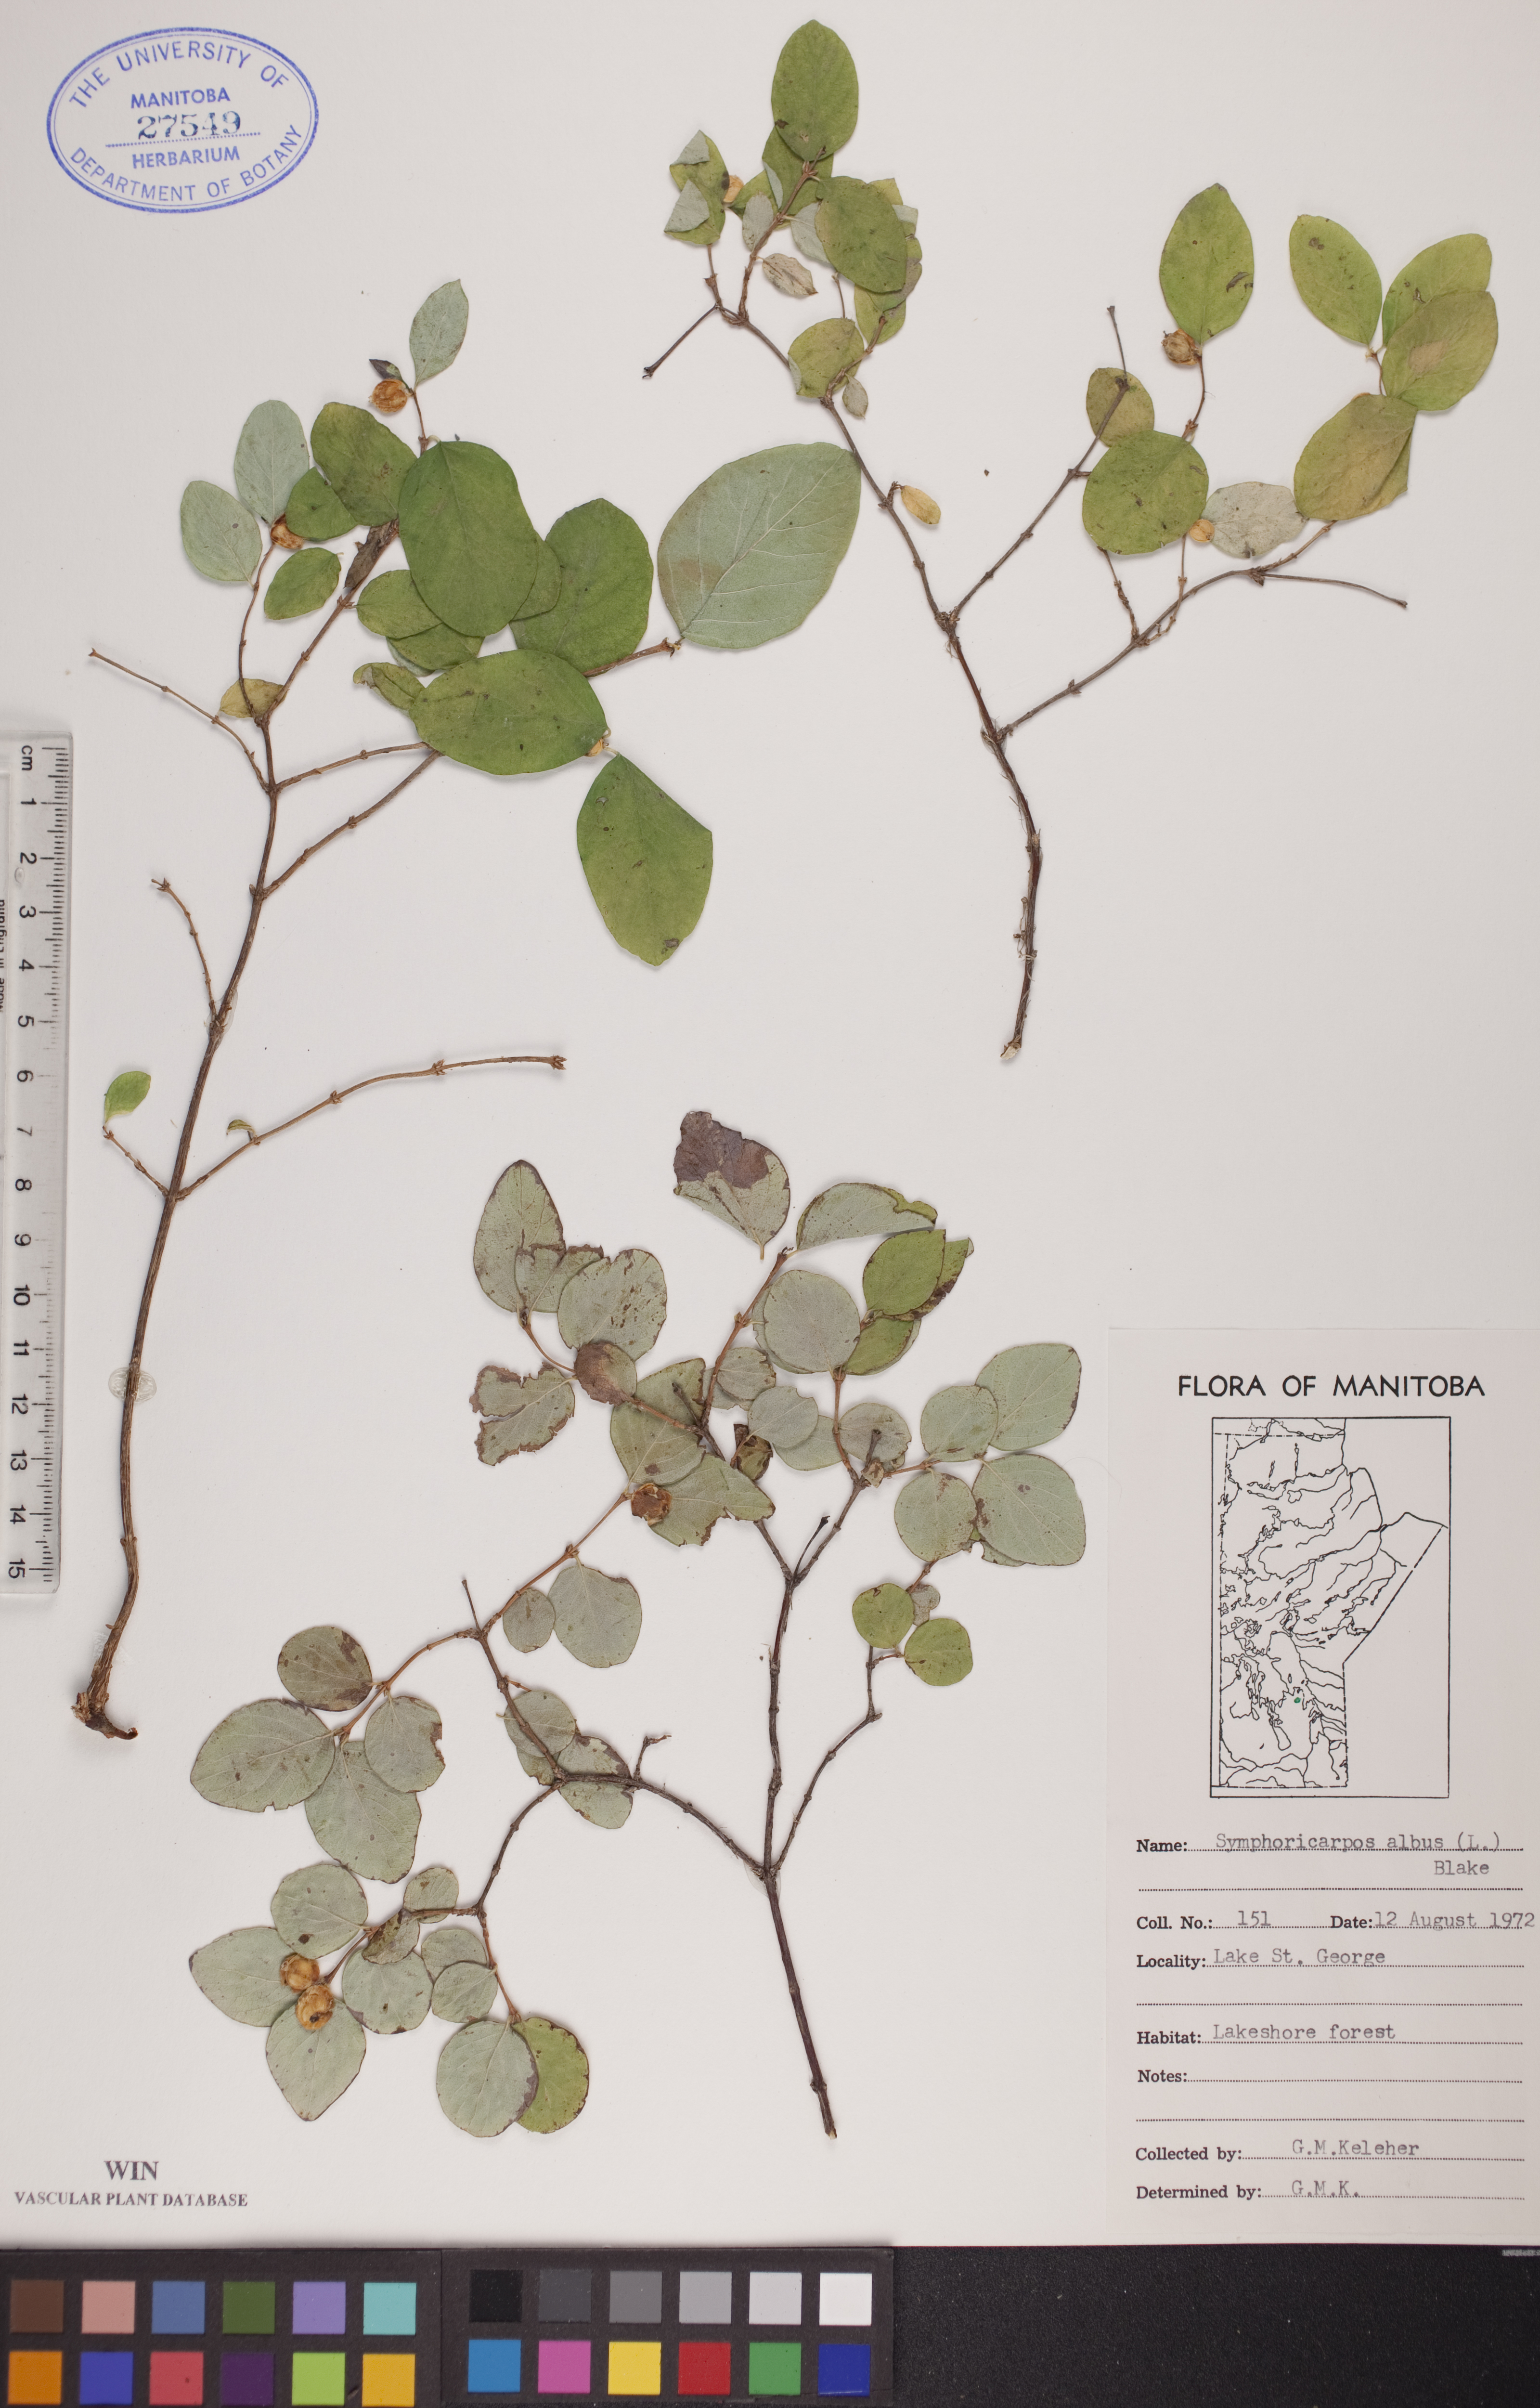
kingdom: Plantae
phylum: Tracheophyta
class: Magnoliopsida
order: Dipsacales
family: Caprifoliaceae
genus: Symphoricarpos
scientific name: Symphoricarpos albus
